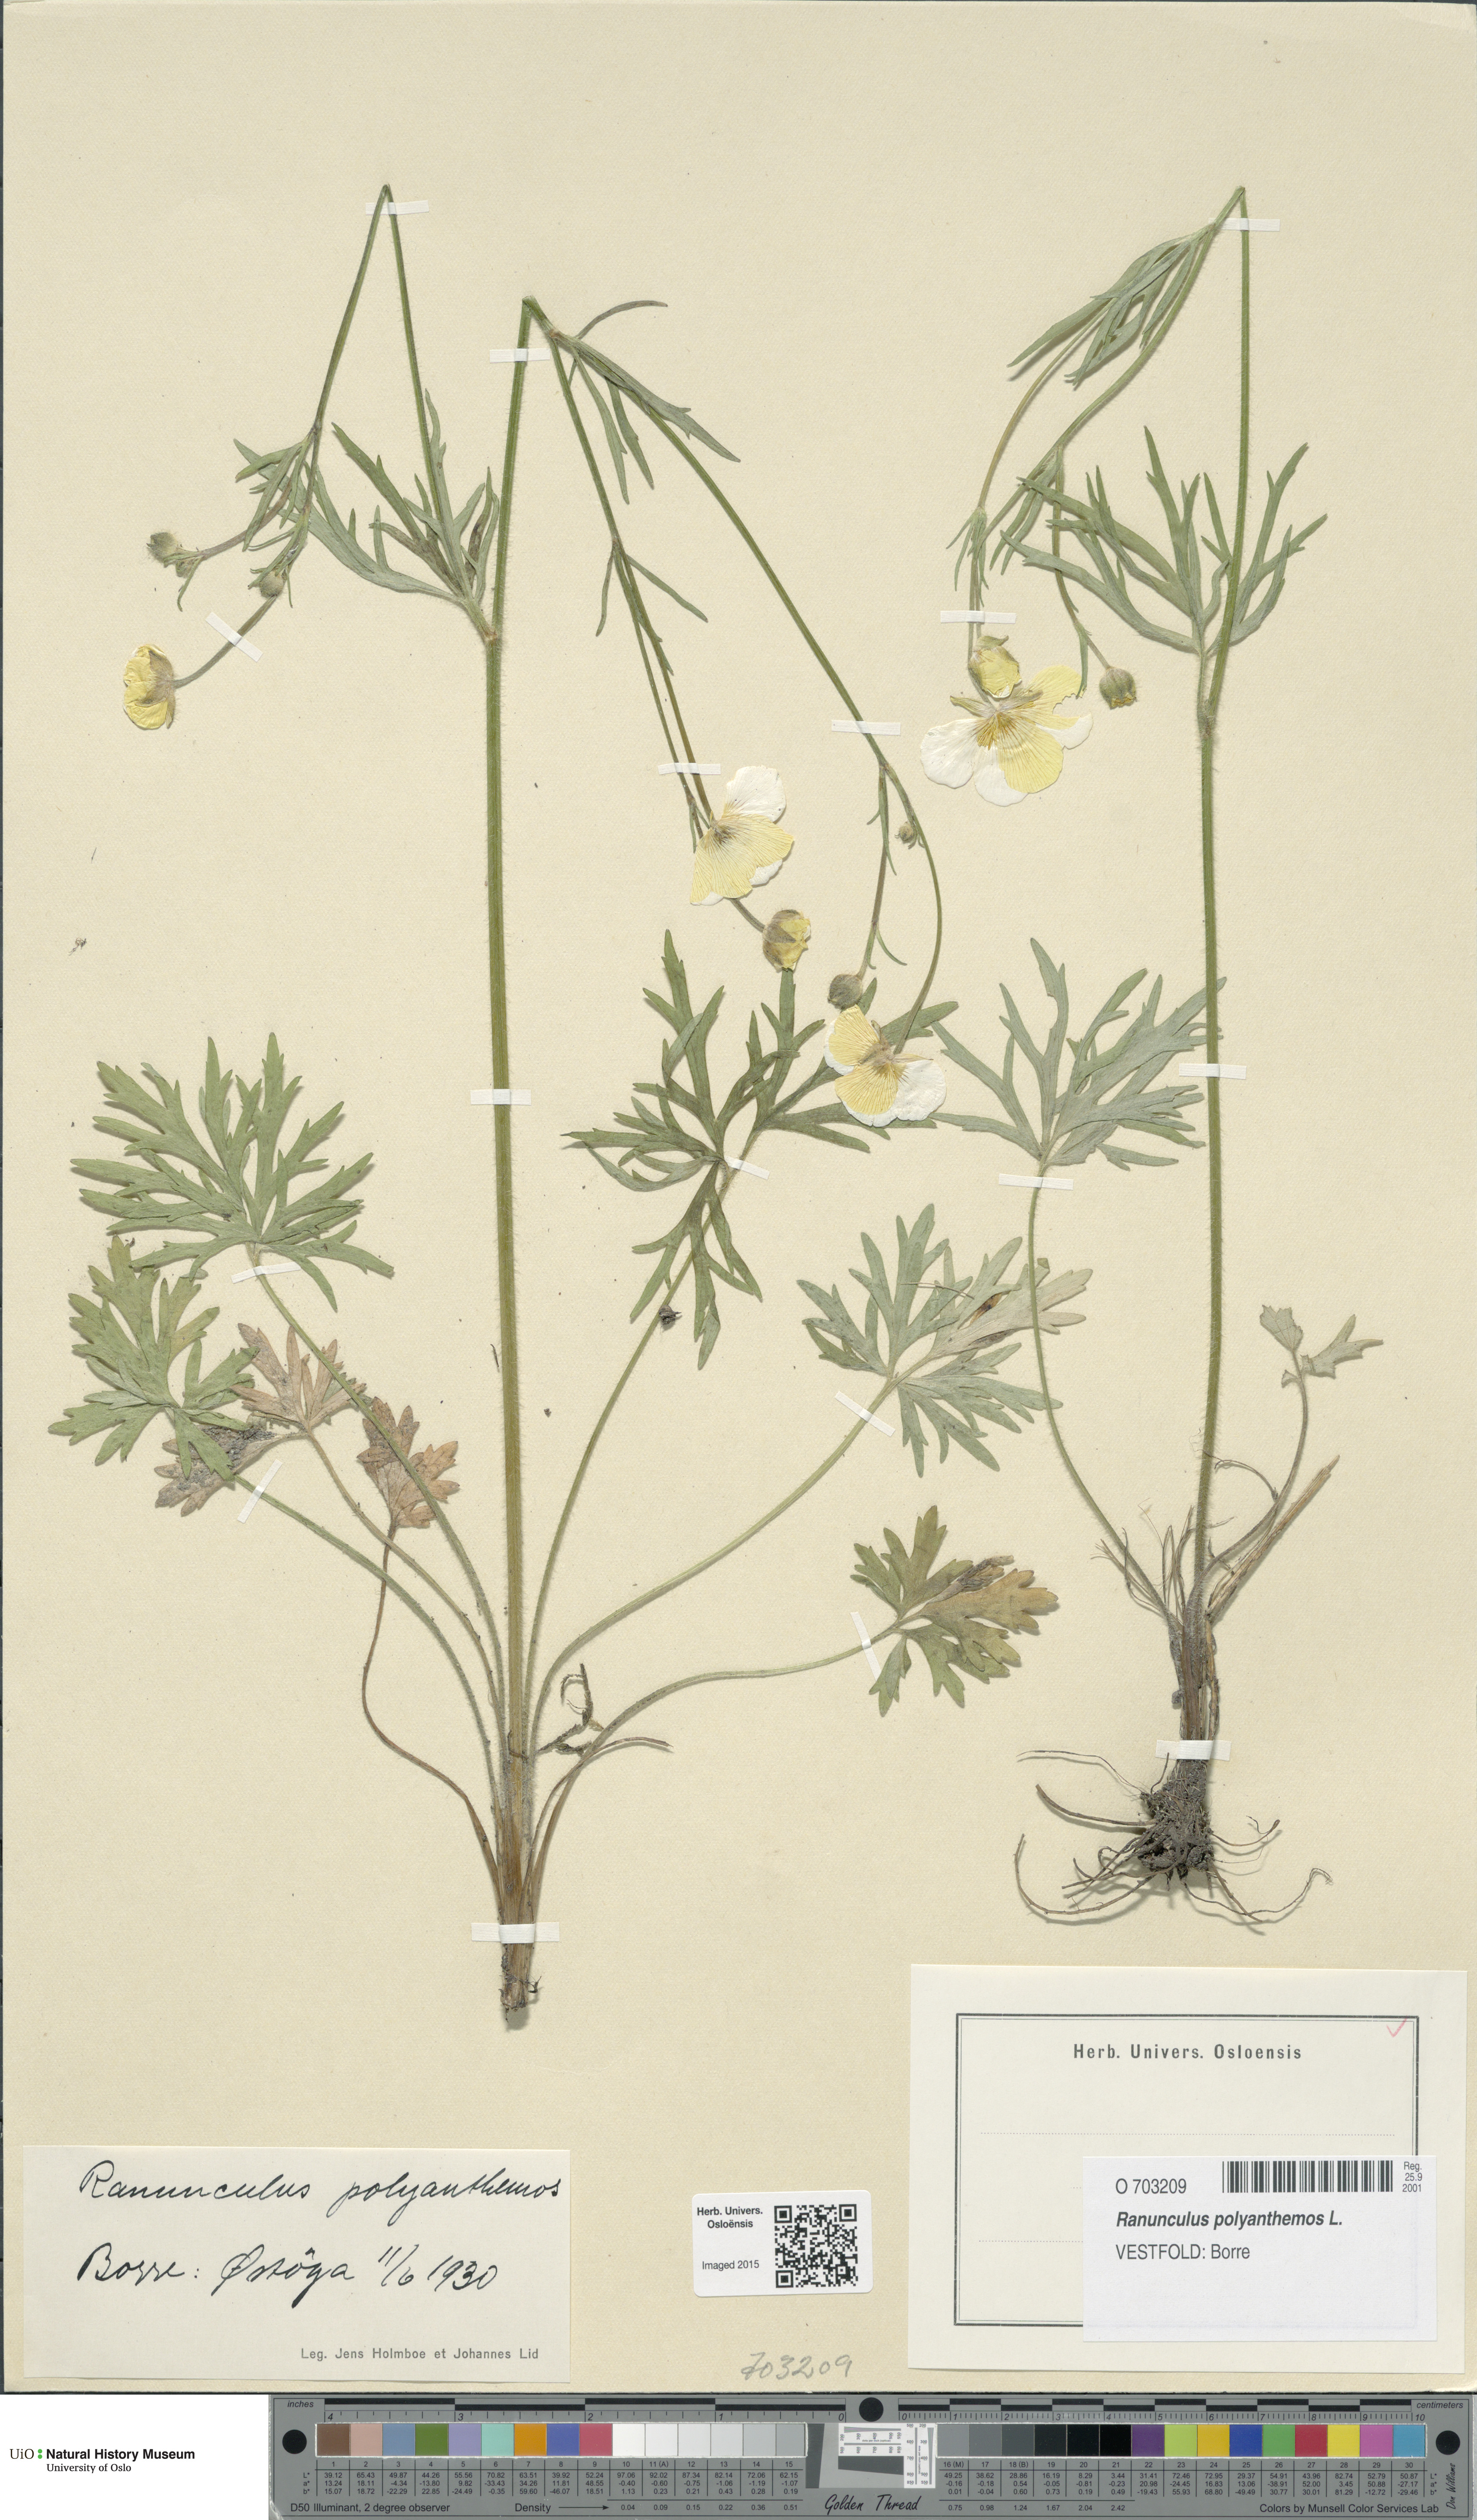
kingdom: Plantae
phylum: Tracheophyta
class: Magnoliopsida
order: Ranunculales
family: Ranunculaceae
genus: Ranunculus
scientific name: Ranunculus polyanthemos
